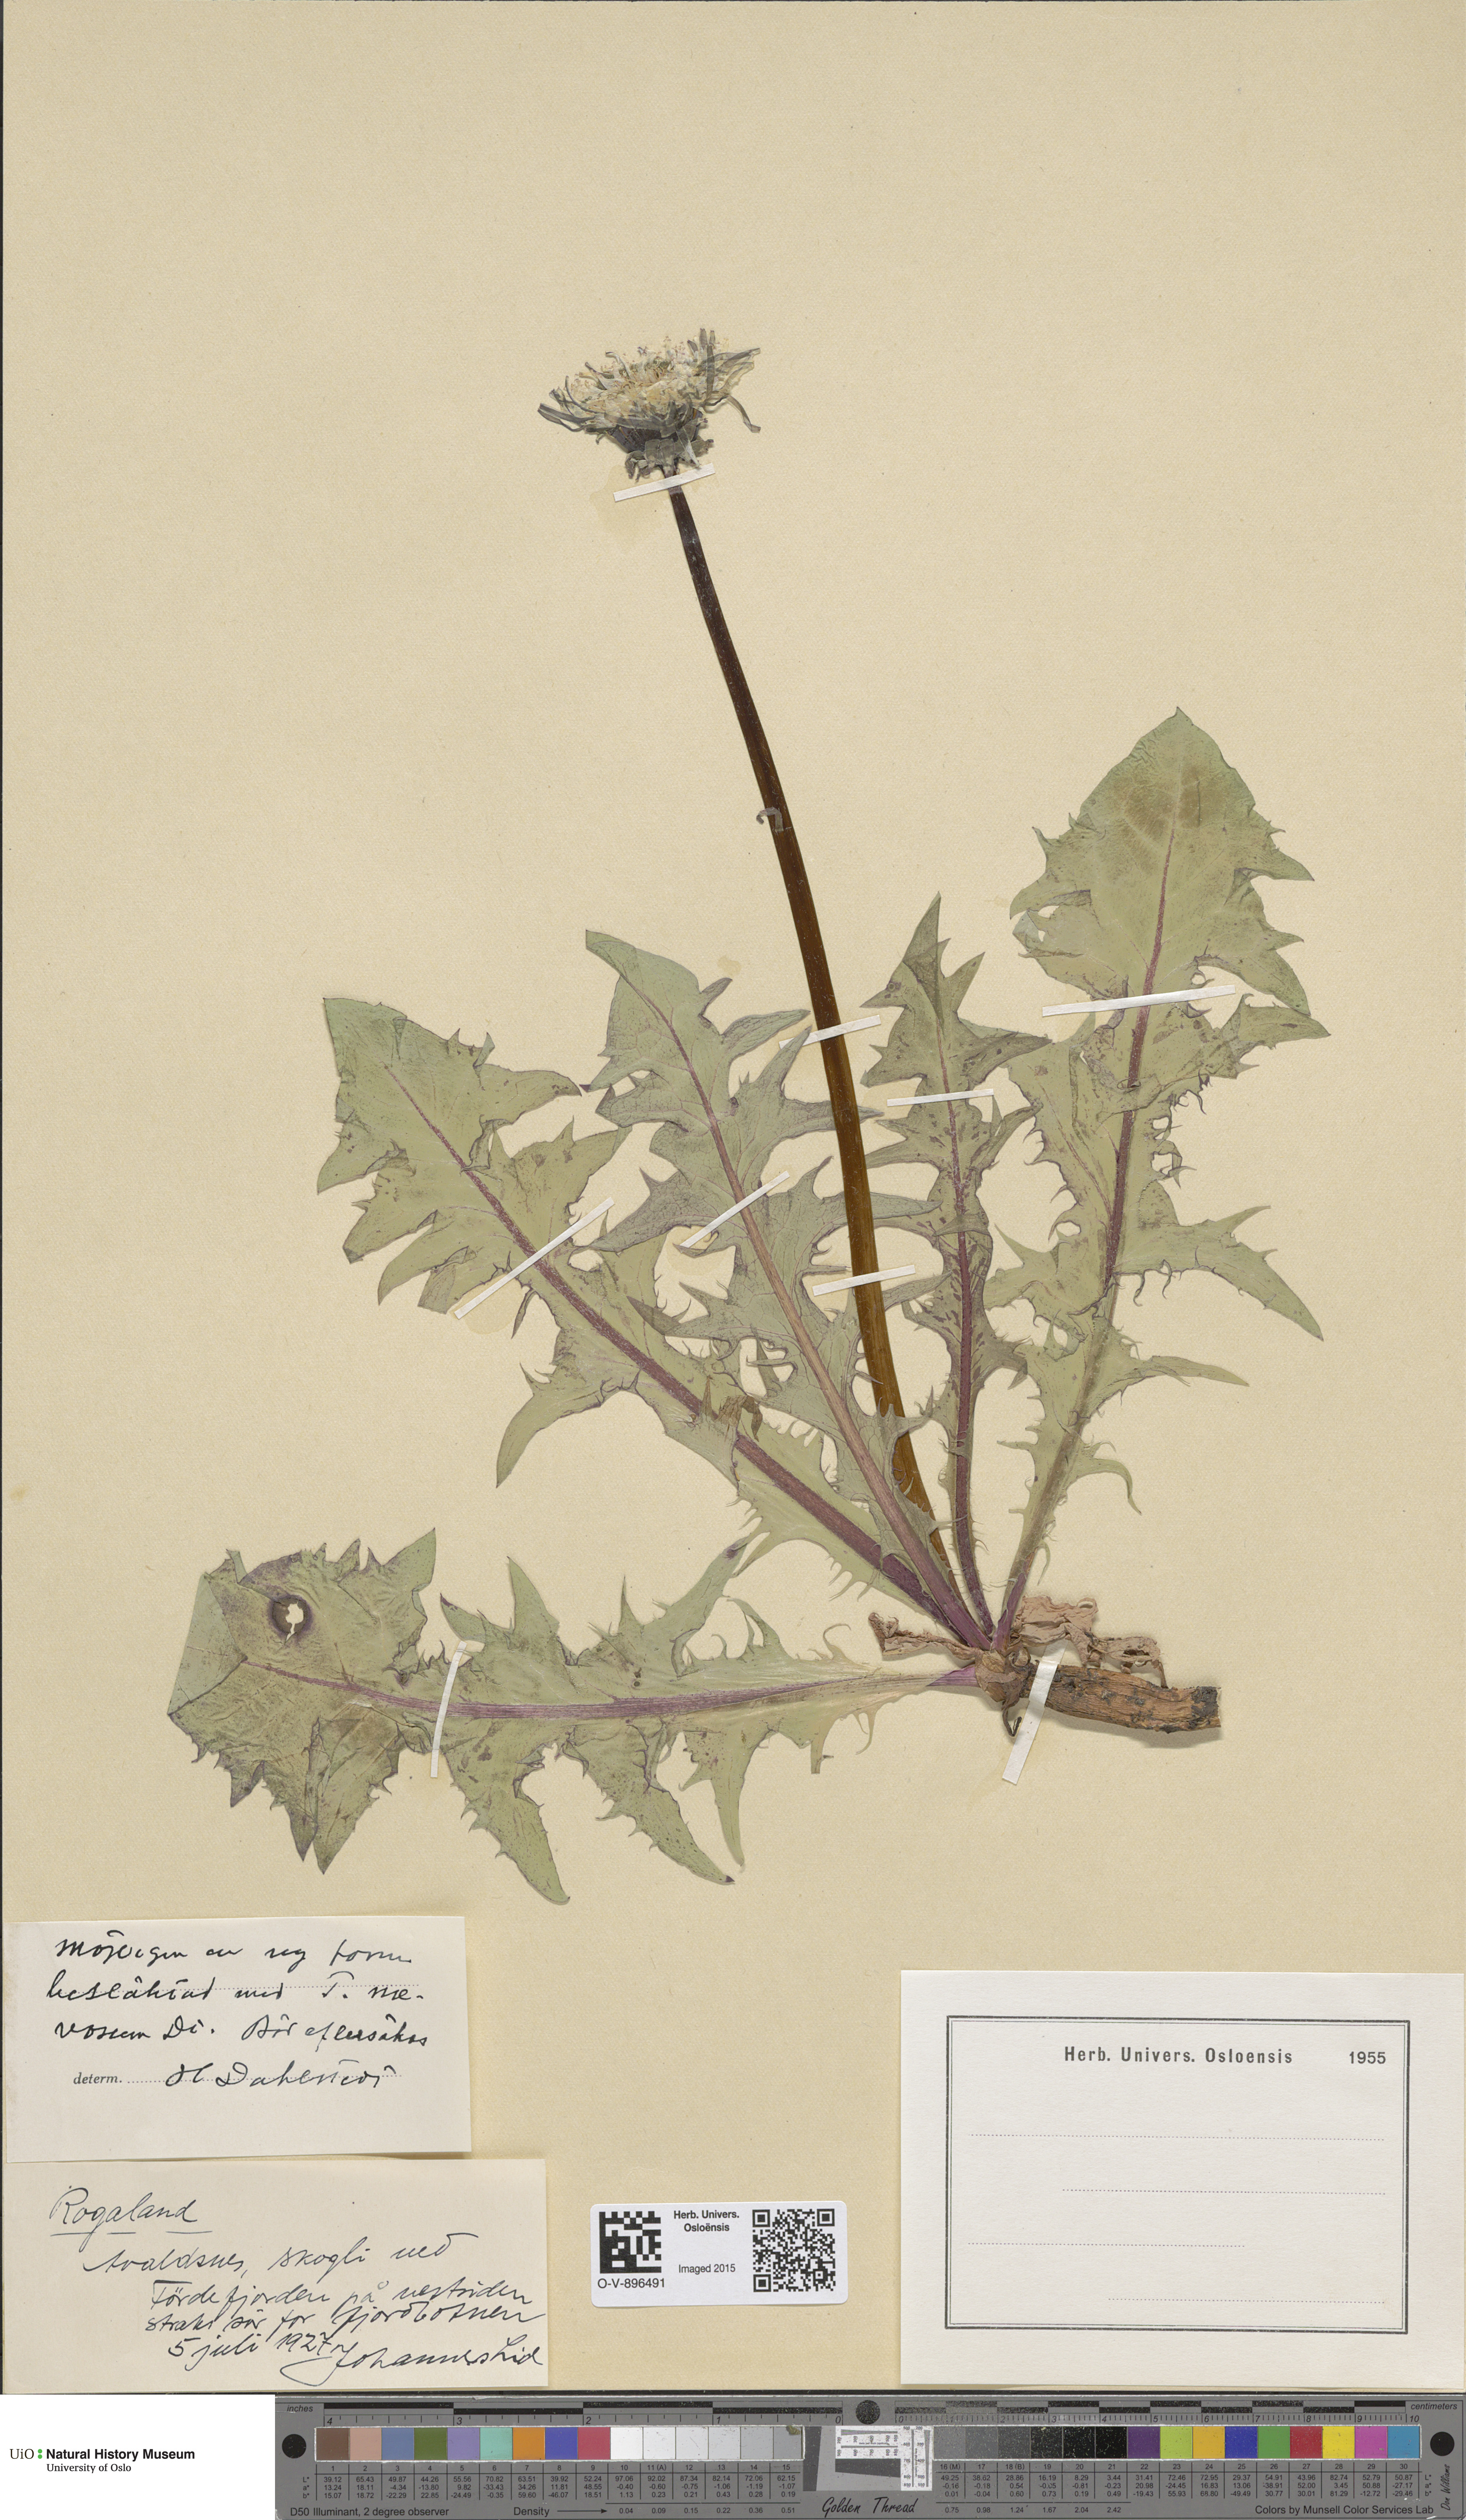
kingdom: Plantae
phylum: Tracheophyta
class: Magnoliopsida
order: Asterales
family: Asteraceae
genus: Taraxacum
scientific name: Taraxacum naevosum
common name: Squat dandelion
